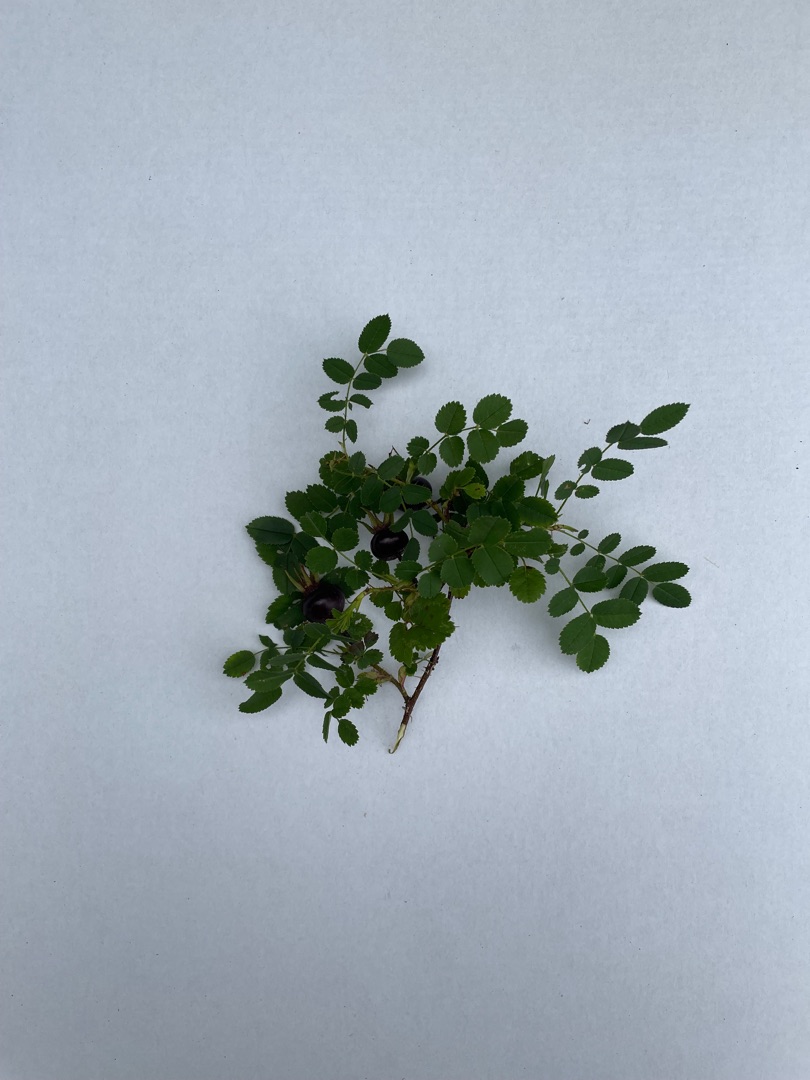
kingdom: Plantae
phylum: Tracheophyta
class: Magnoliopsida
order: Rosales
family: Rosaceae
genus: Rosa
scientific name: Rosa spinosissima
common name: Klit-rose
